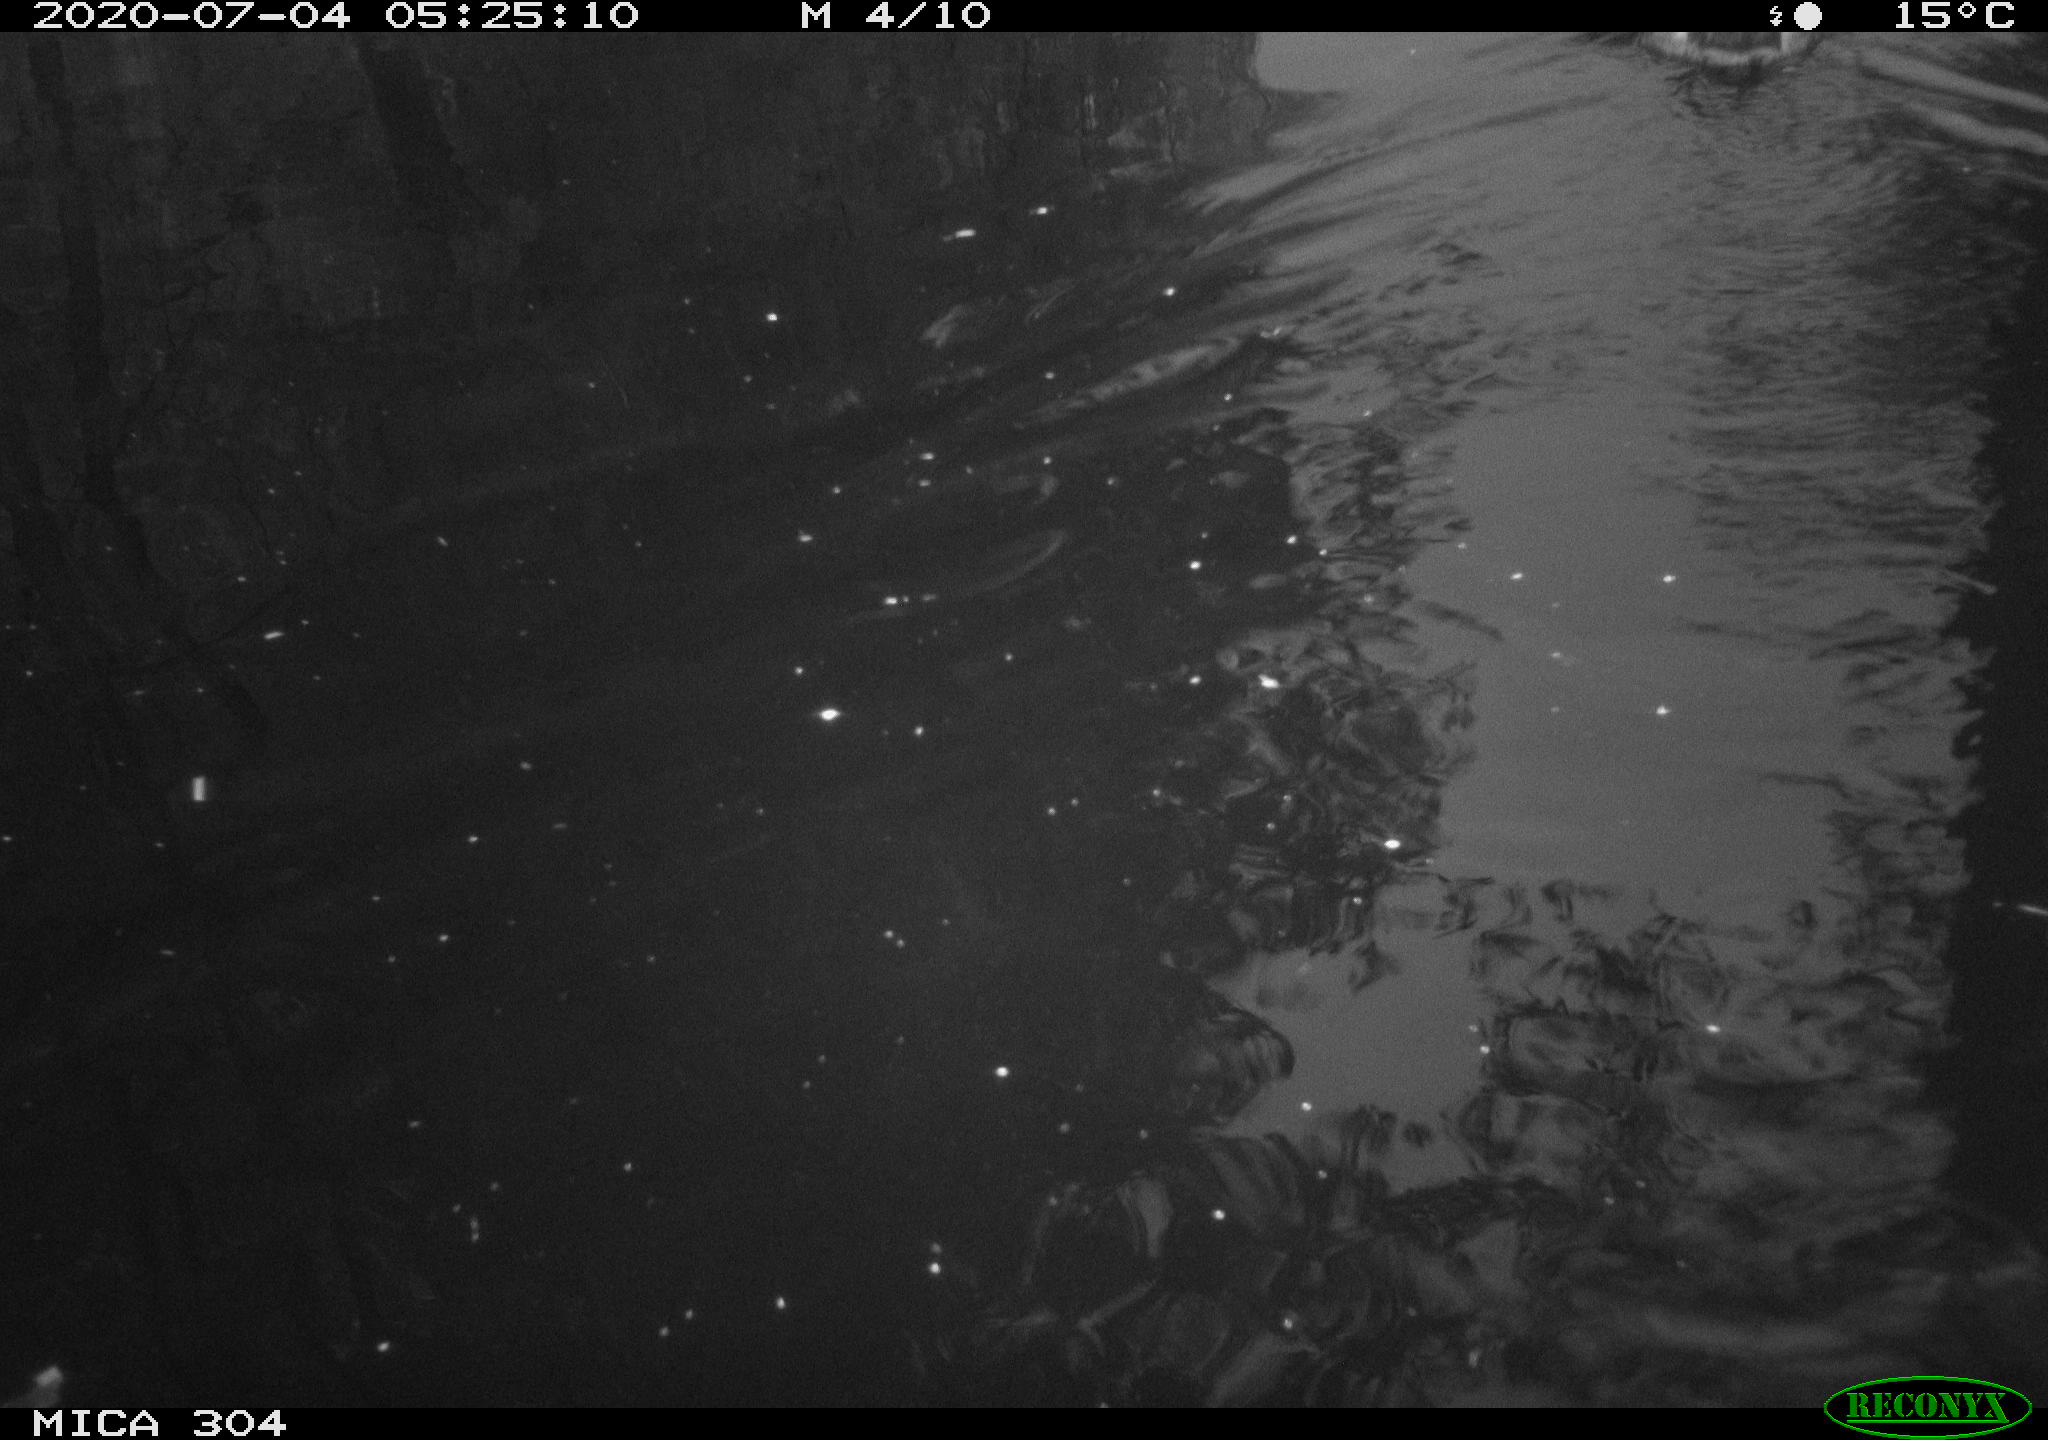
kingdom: Animalia
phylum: Chordata
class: Aves
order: Anseriformes
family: Anatidae
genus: Anas
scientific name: Anas platyrhynchos
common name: Mallard
